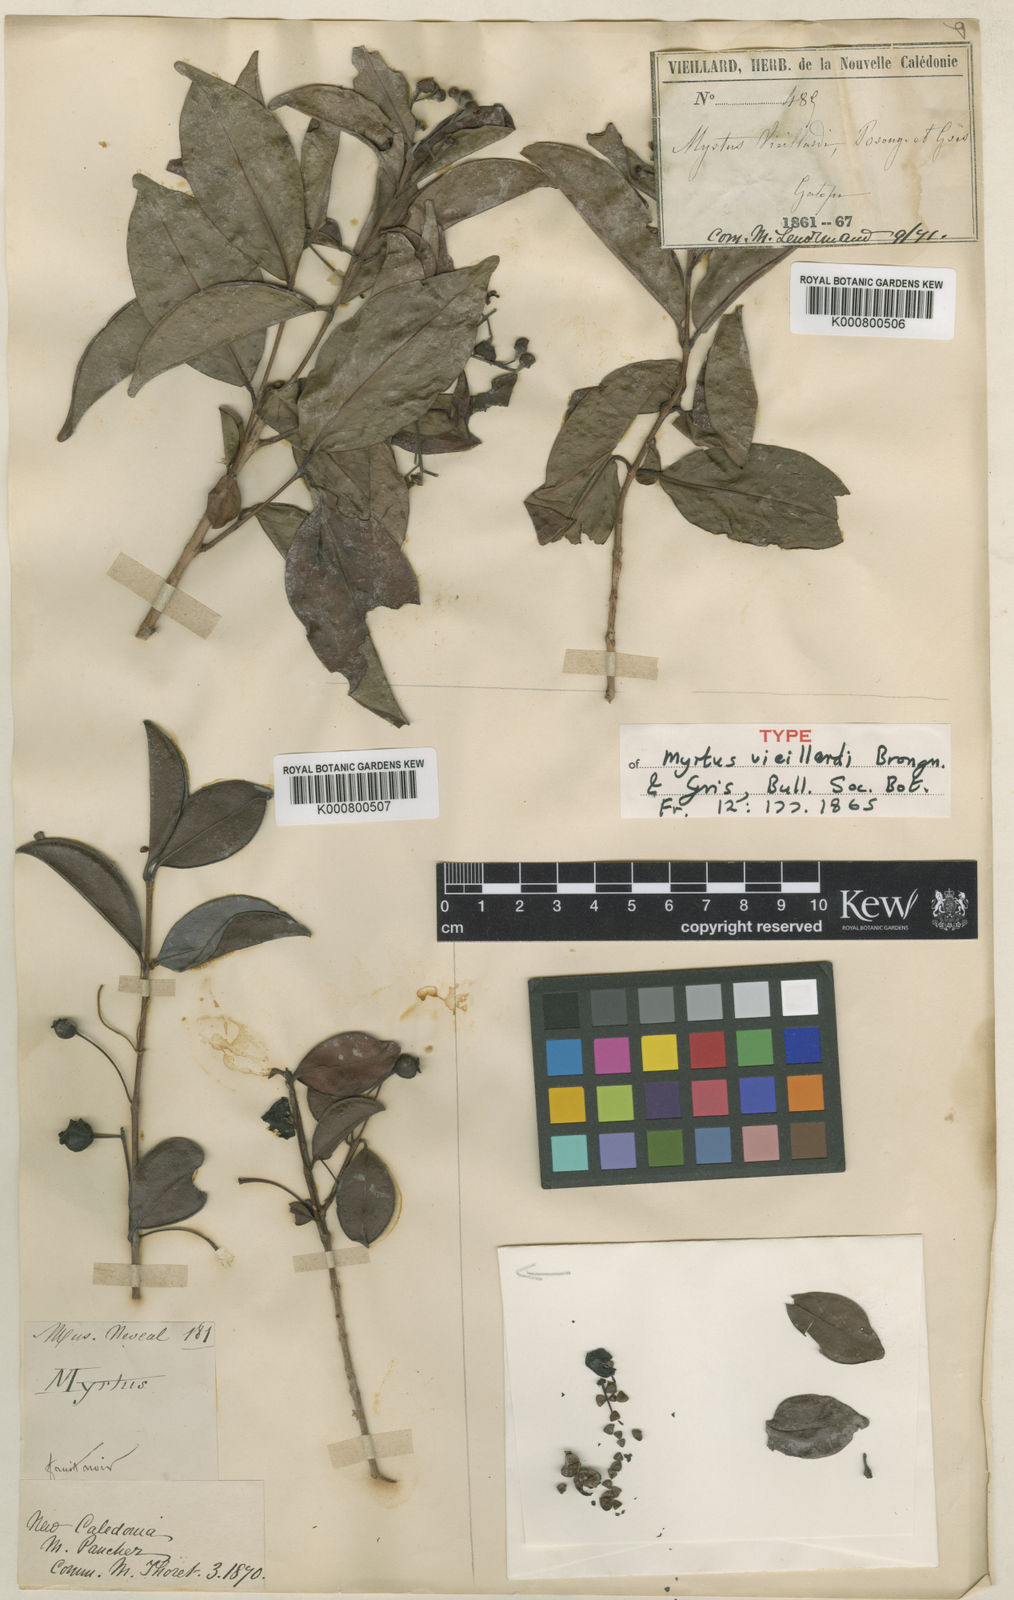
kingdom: Plantae
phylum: Tracheophyta
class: Magnoliopsida
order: Myrtales
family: Myrtaceae
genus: Archirhodomyrtus
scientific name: Archirhodomyrtus vieillardii
